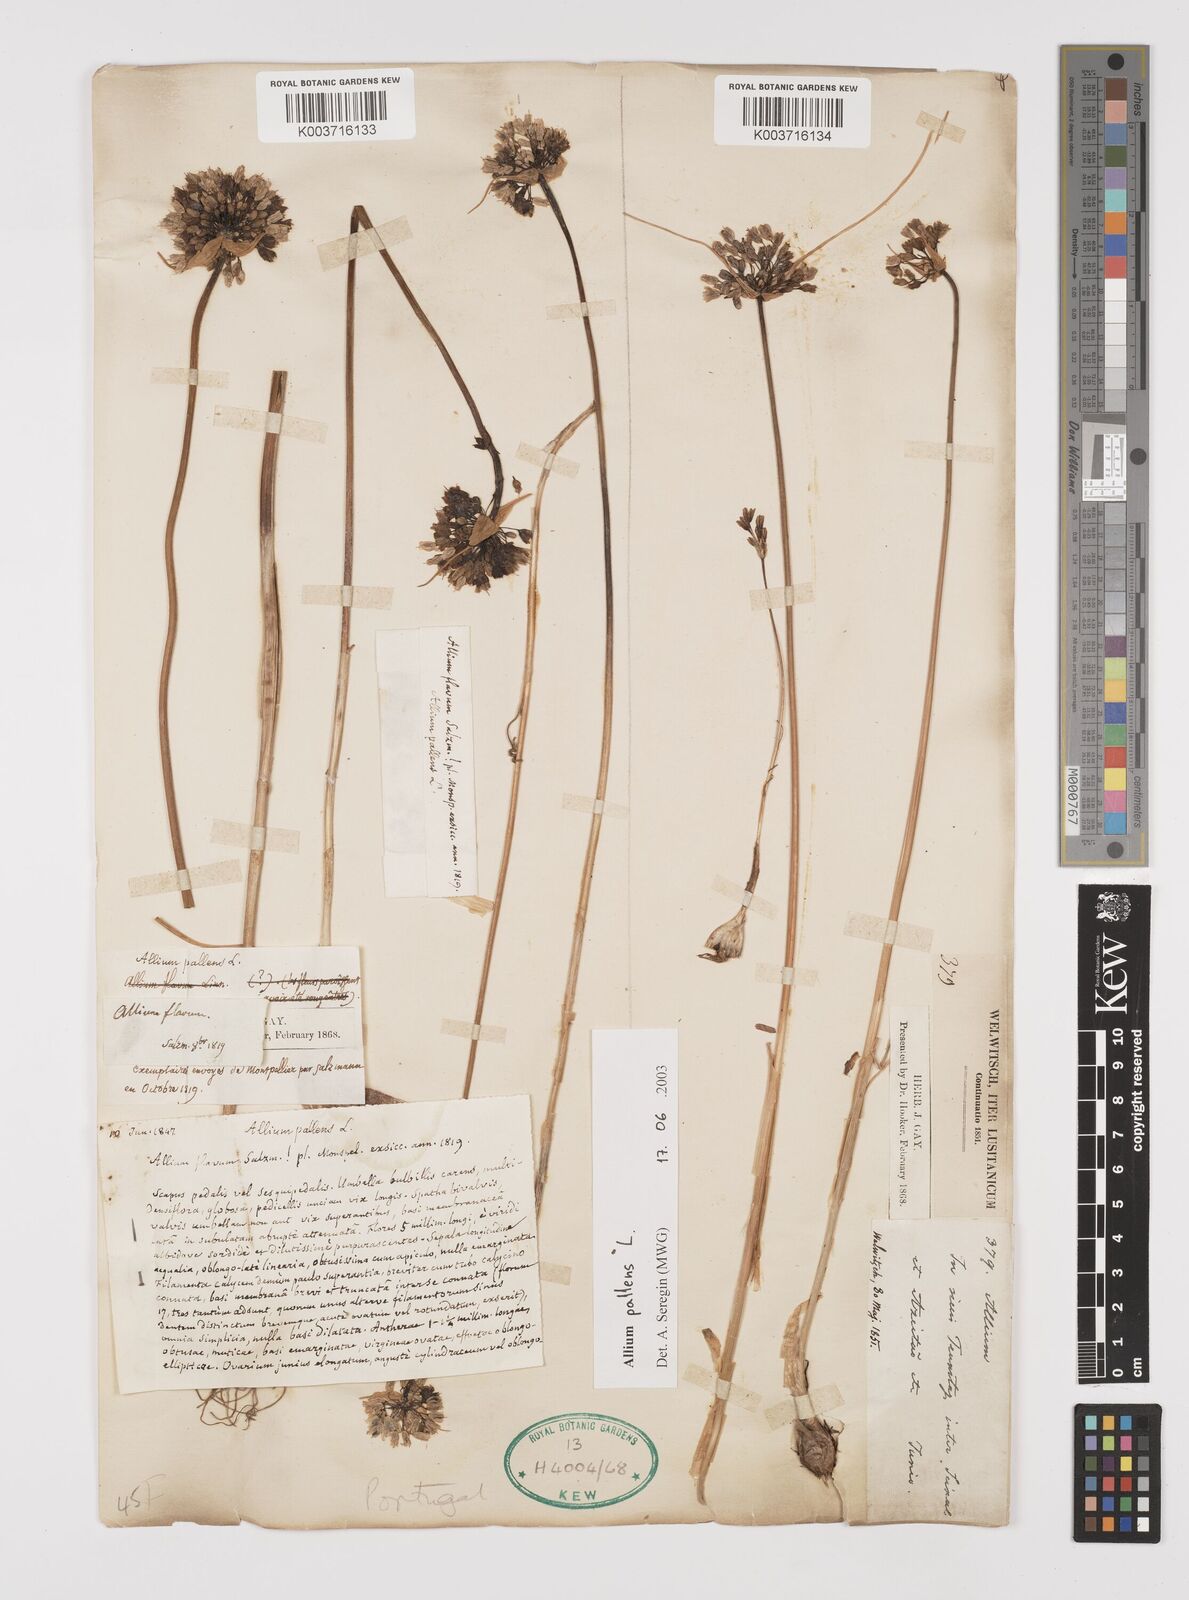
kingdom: Plantae
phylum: Tracheophyta
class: Liliopsida
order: Asparagales
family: Amaryllidaceae
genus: Allium
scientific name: Allium pallens
